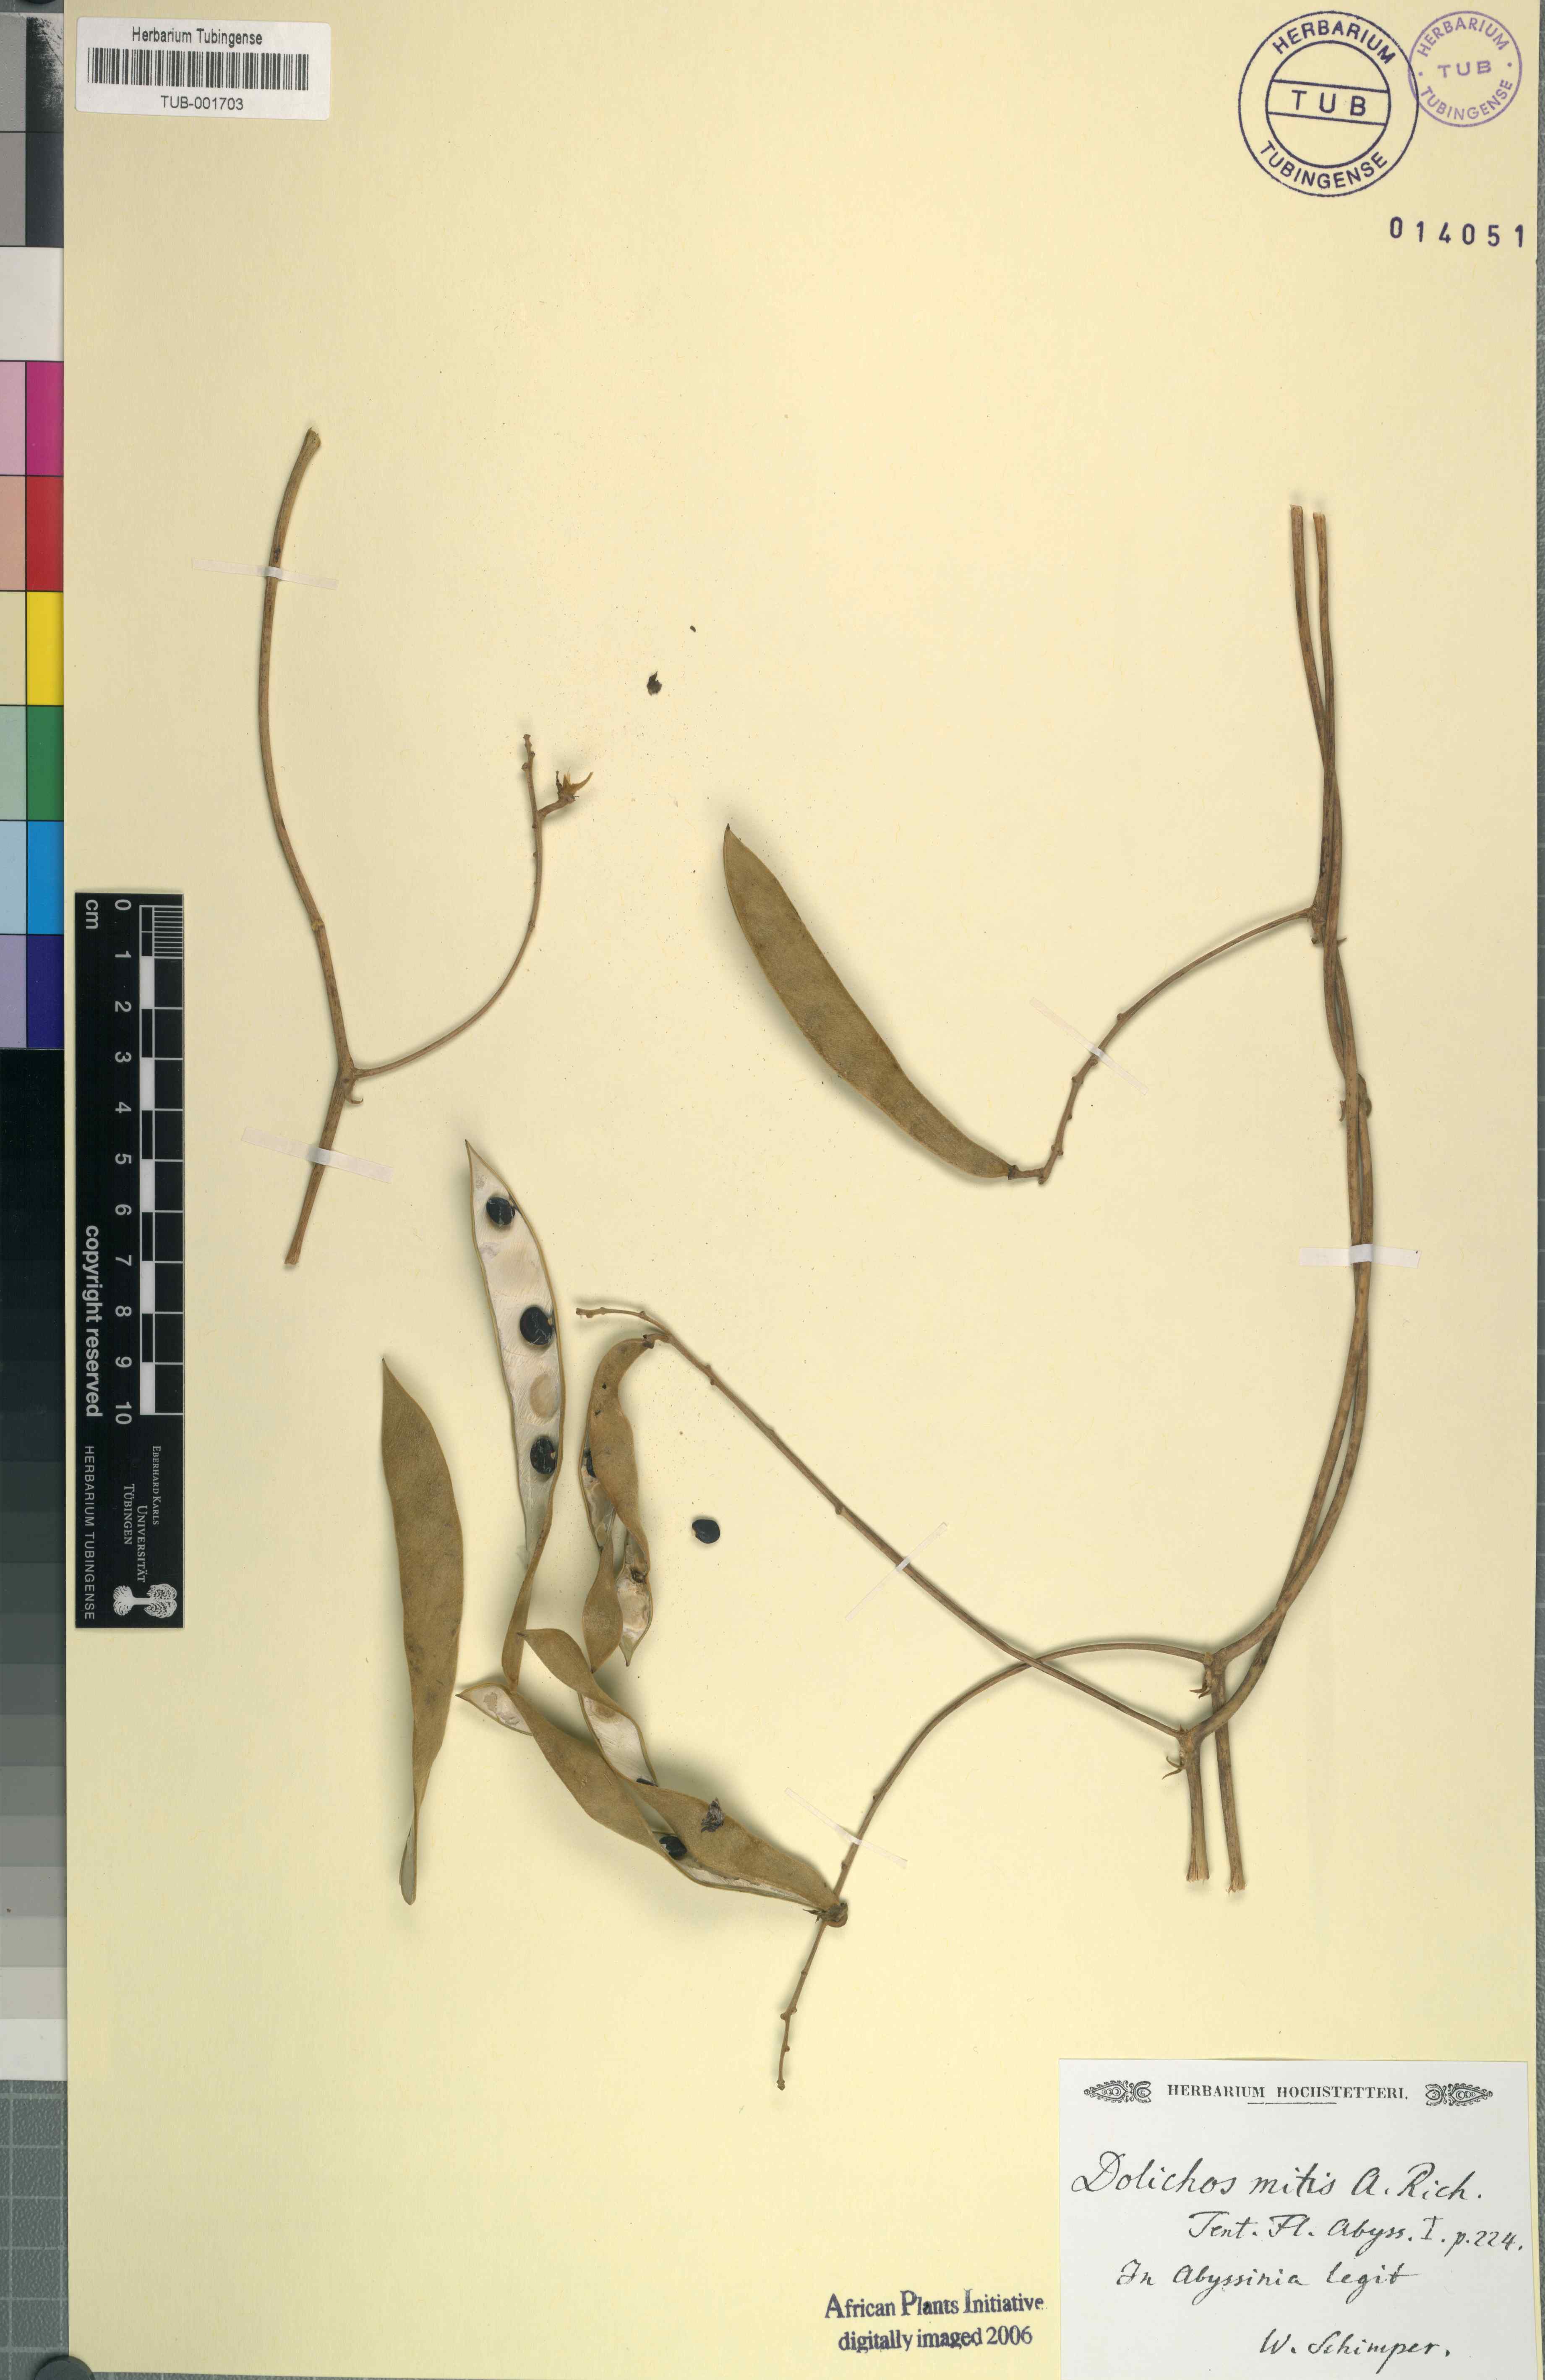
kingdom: Plantae
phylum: Tracheophyta
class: Magnoliopsida
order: Fabales
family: Fabaceae
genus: Neorautanenia
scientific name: Neorautanenia mitis
